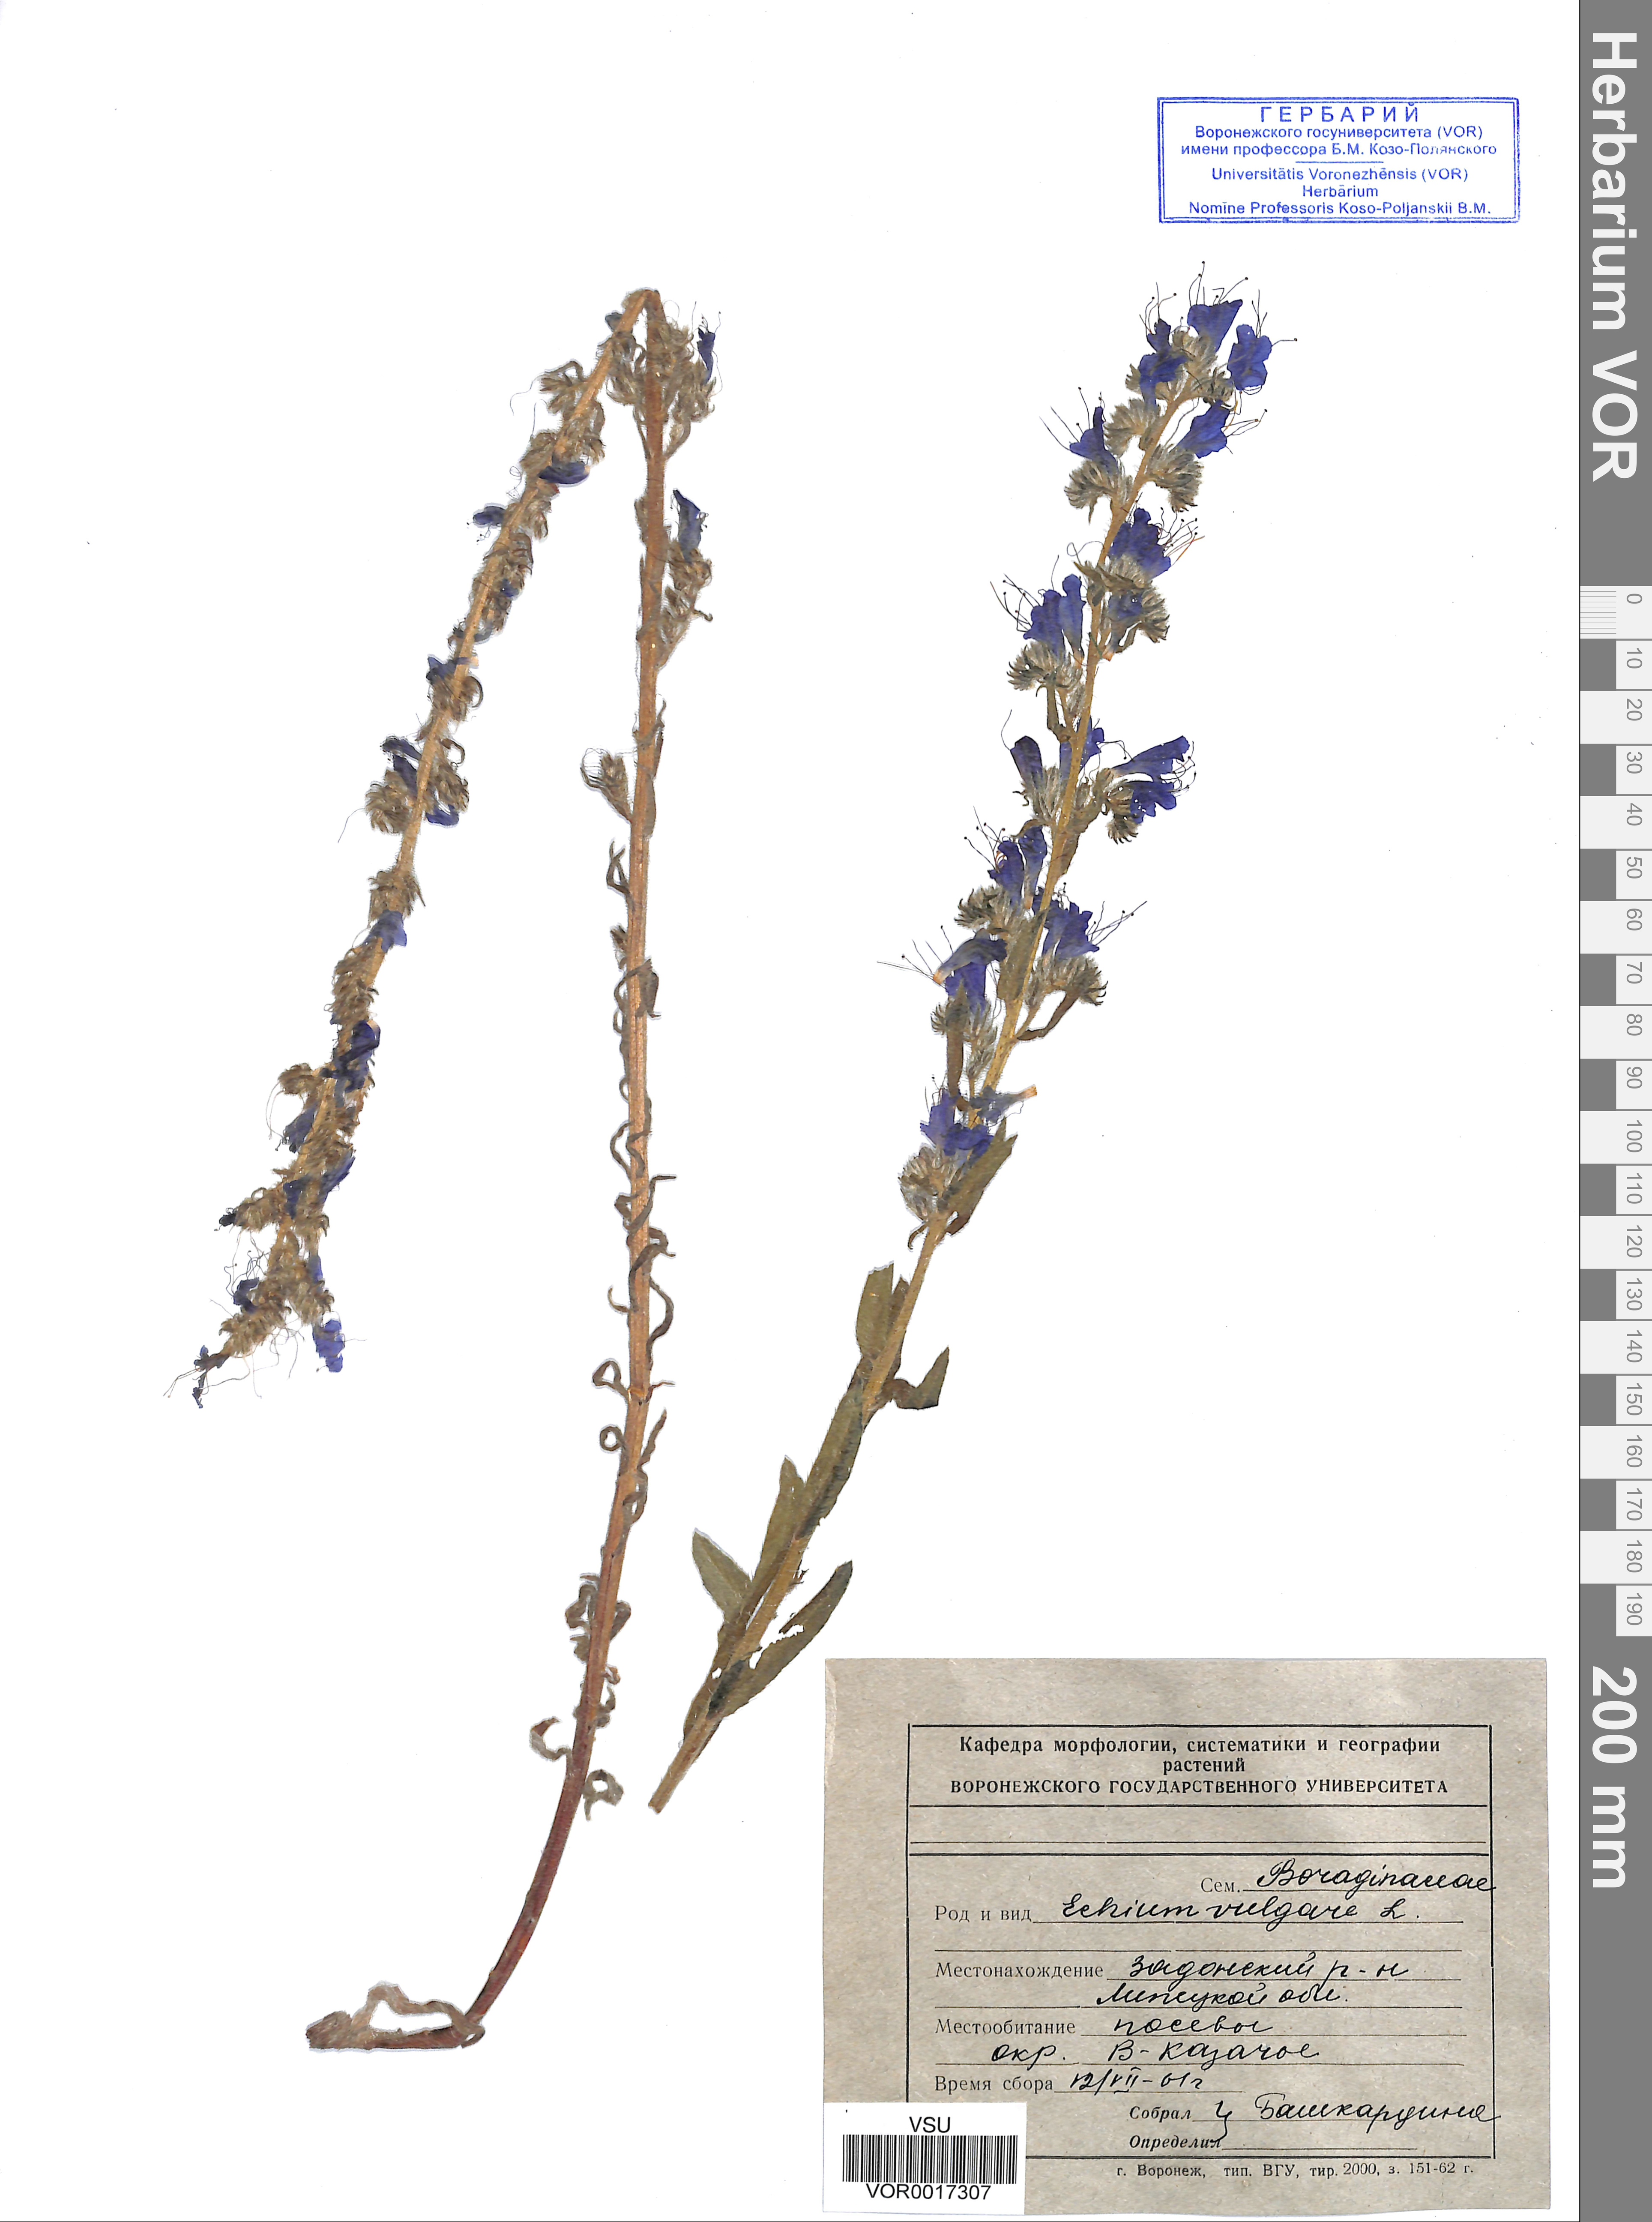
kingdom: Plantae
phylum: Tracheophyta
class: Magnoliopsida
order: Boraginales
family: Boraginaceae
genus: Echium
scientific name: Echium vulgare
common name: Common viper's bugloss
